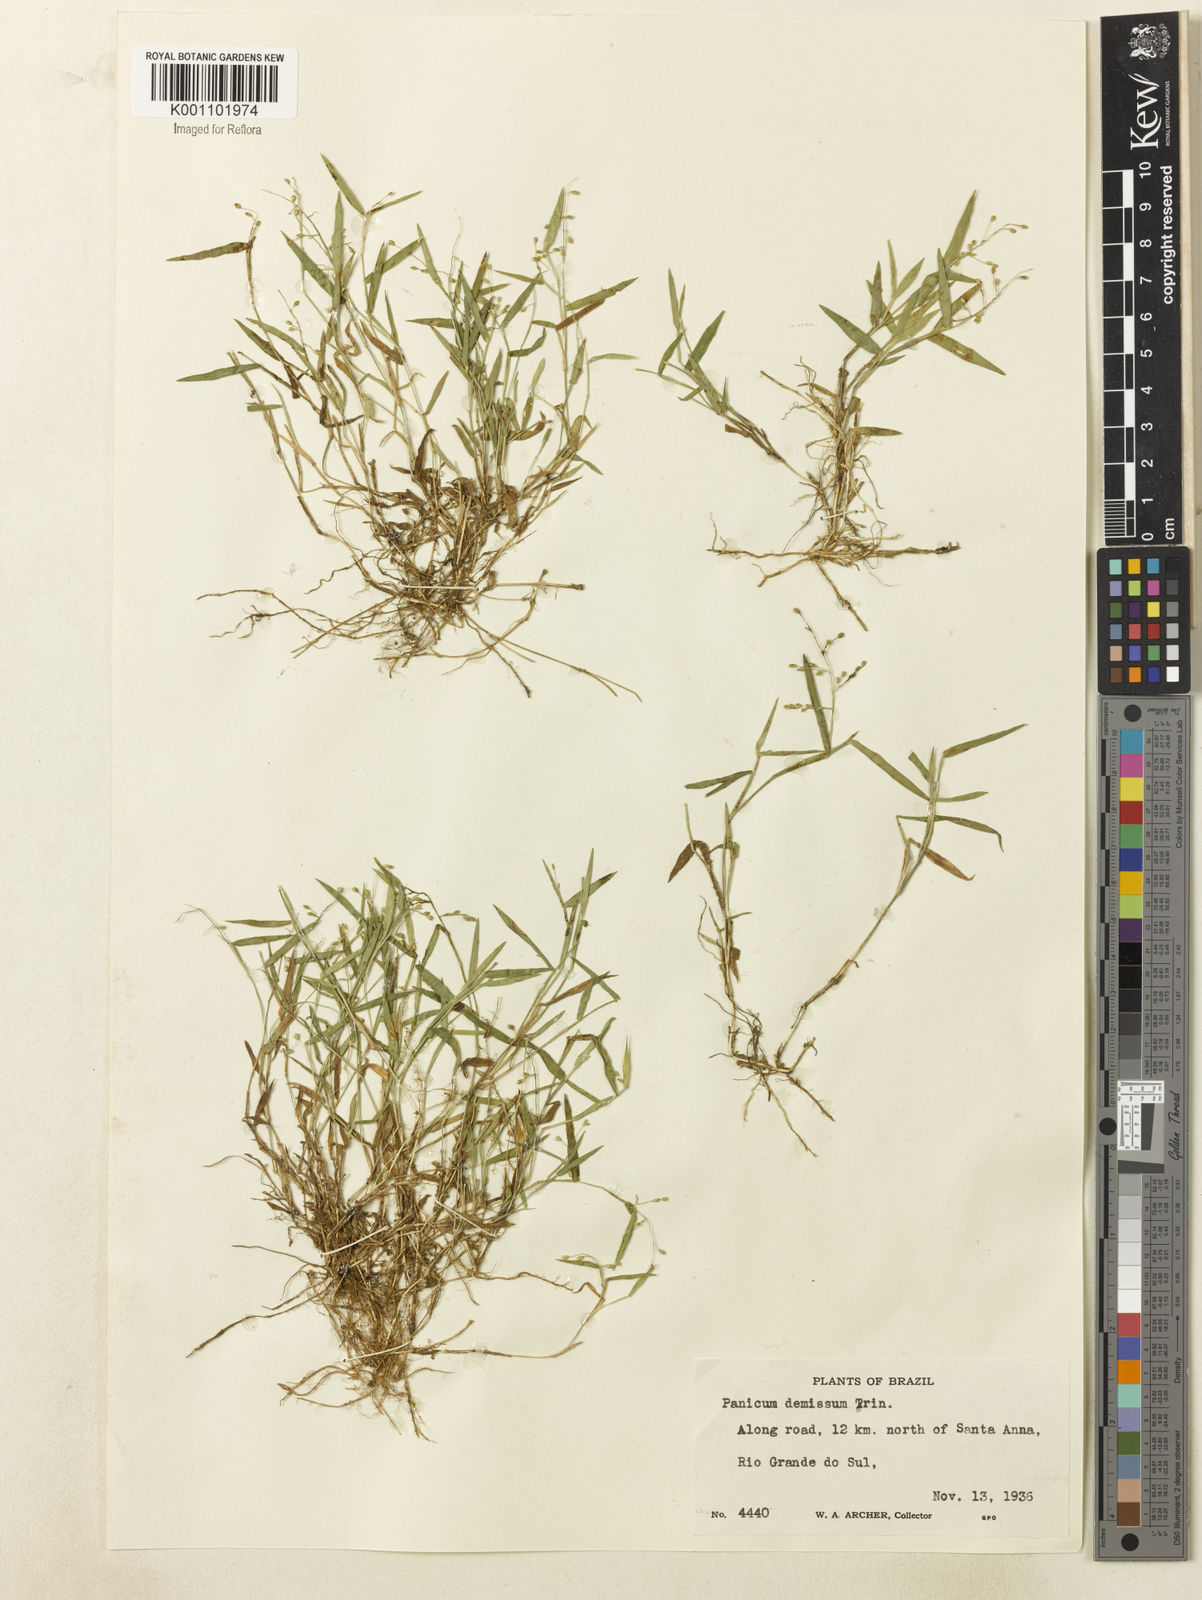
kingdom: Plantae
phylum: Tracheophyta
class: Liliopsida
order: Poales
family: Poaceae
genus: Dichanthelium
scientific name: Dichanthelium sabulorum
